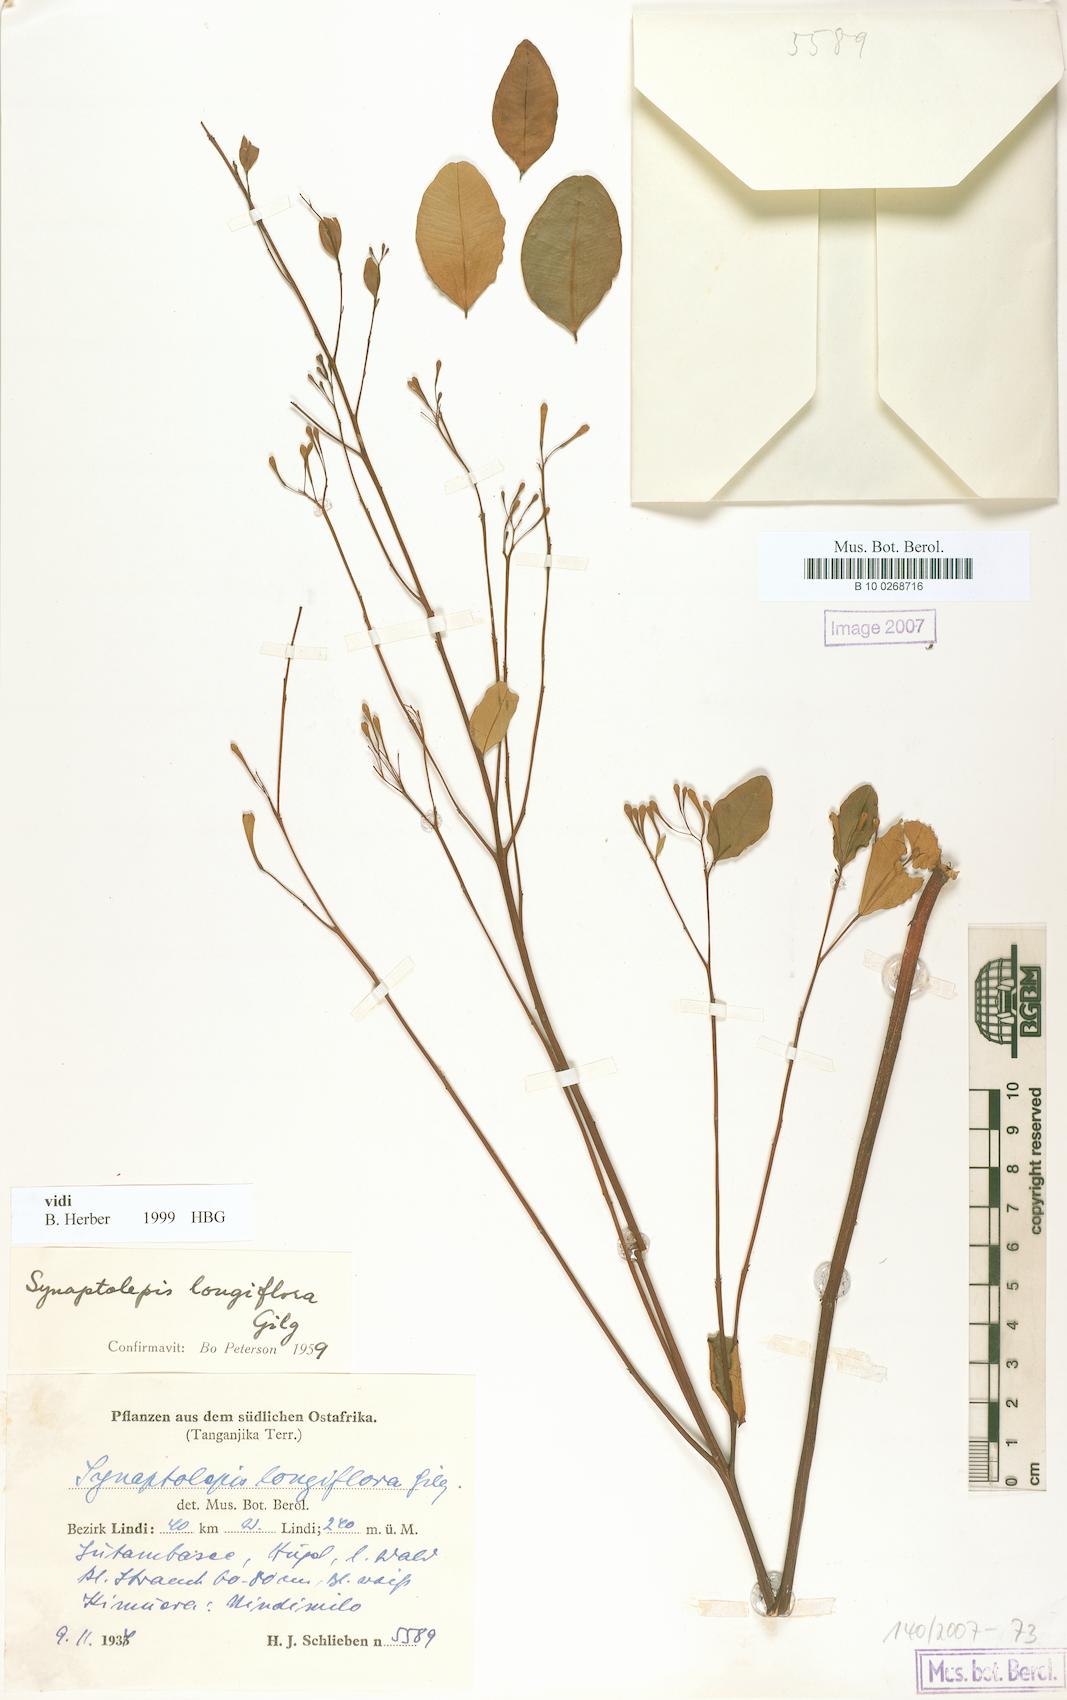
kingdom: Plantae
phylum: Tracheophyta
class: Magnoliopsida
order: Malvales
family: Thymelaeaceae
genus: Synaptolepis
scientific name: Synaptolepis alternifolia
